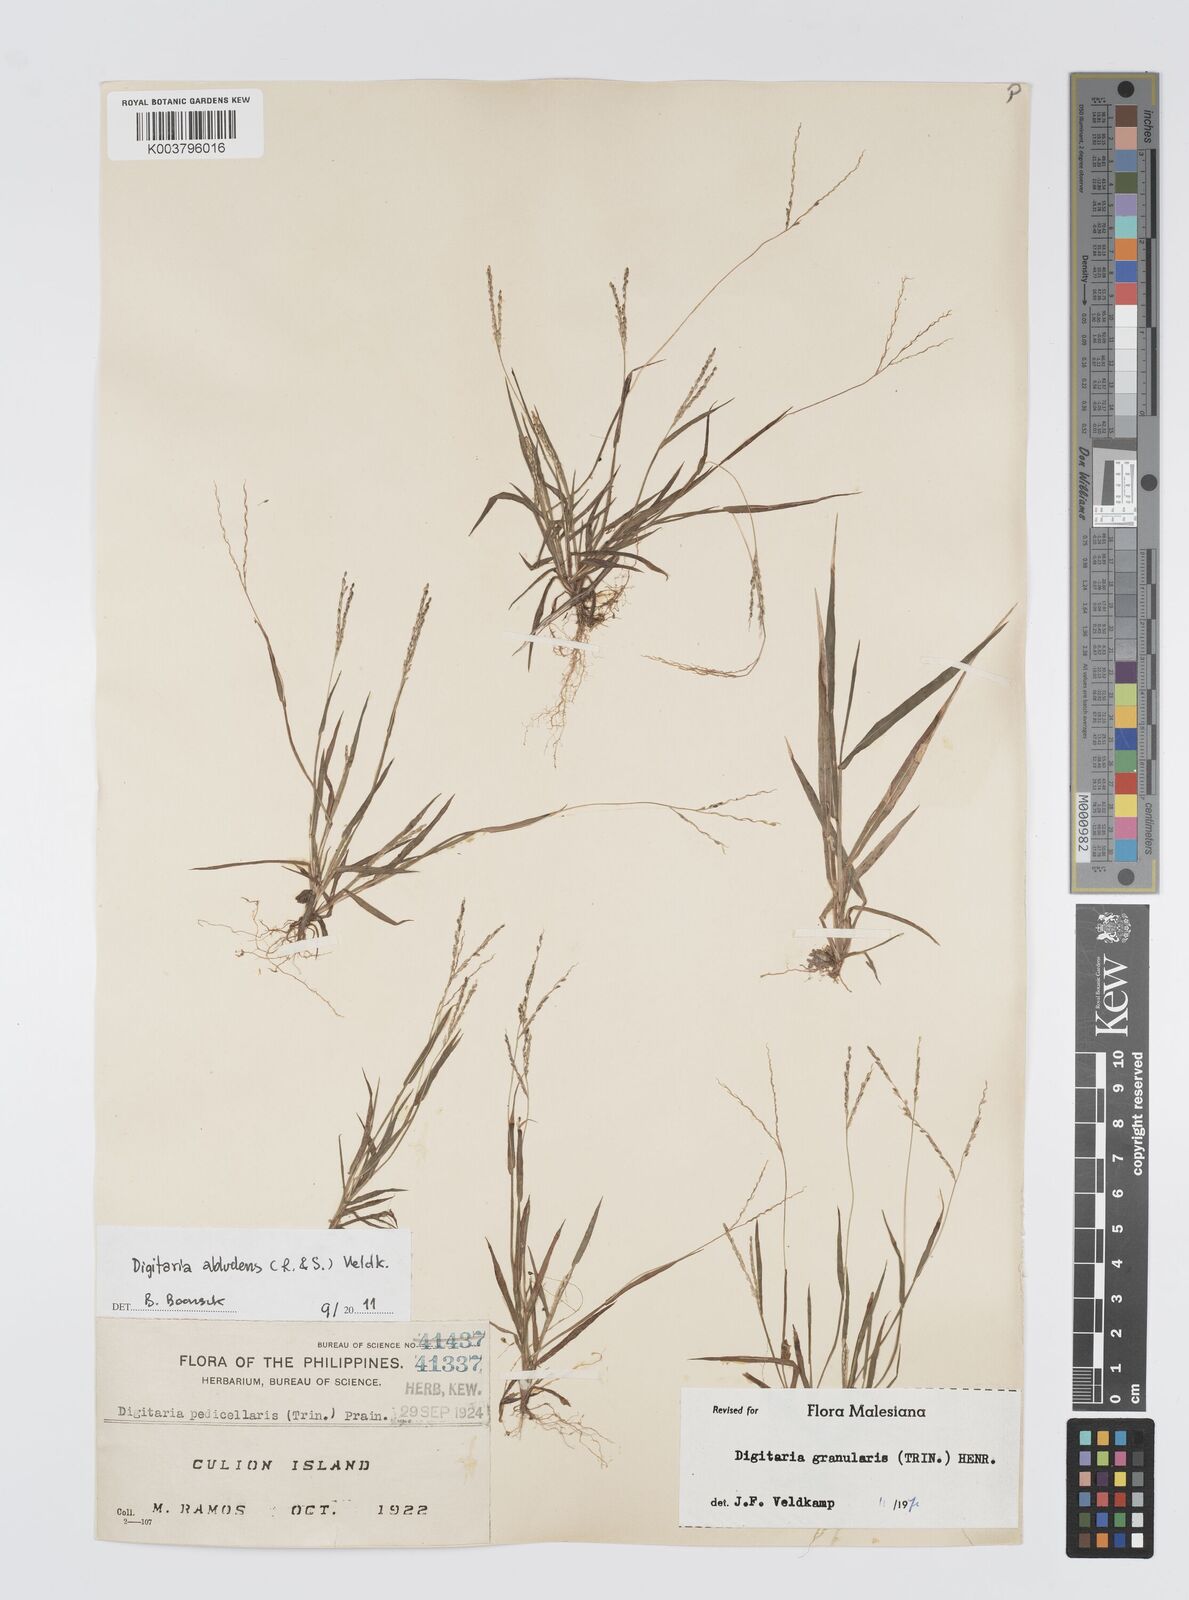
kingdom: Plantae
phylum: Tracheophyta
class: Liliopsida
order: Poales
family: Poaceae
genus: Digitaria
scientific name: Digitaria abludens
